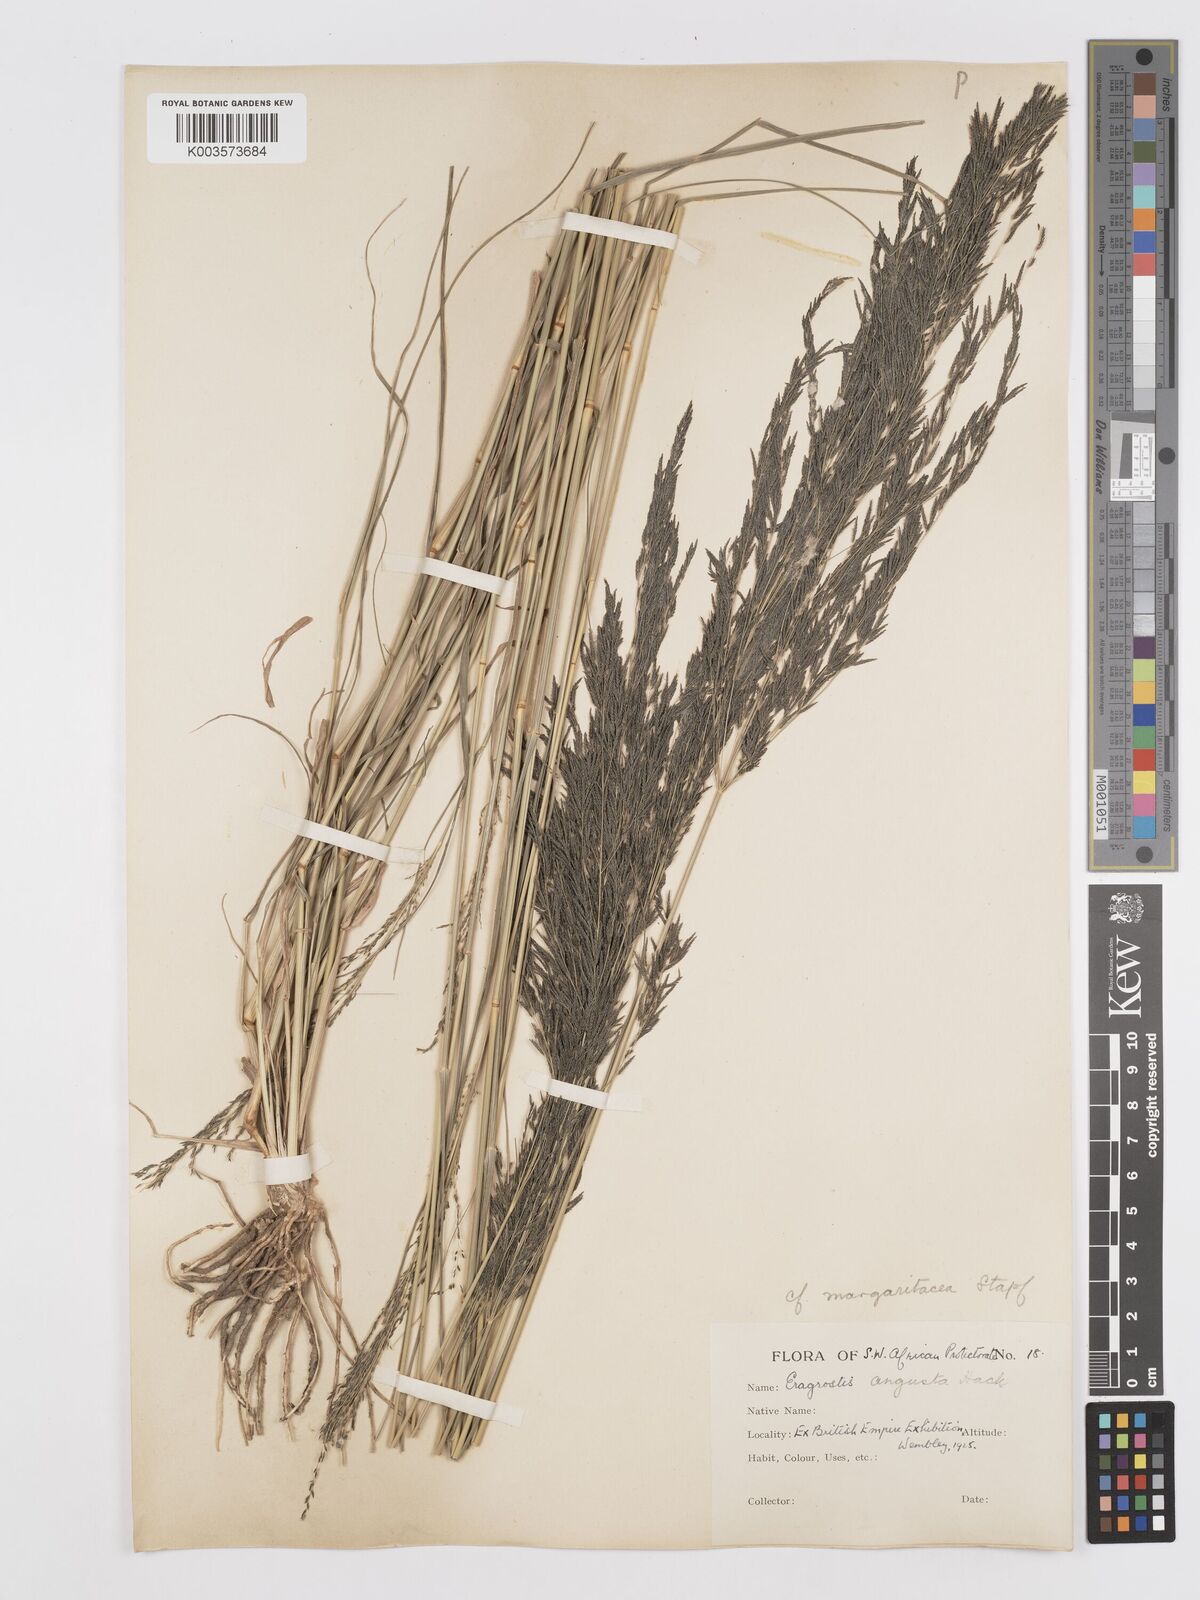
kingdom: Plantae
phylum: Tracheophyta
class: Liliopsida
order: Poales
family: Poaceae
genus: Eragrostis
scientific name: Eragrostis rotifer
